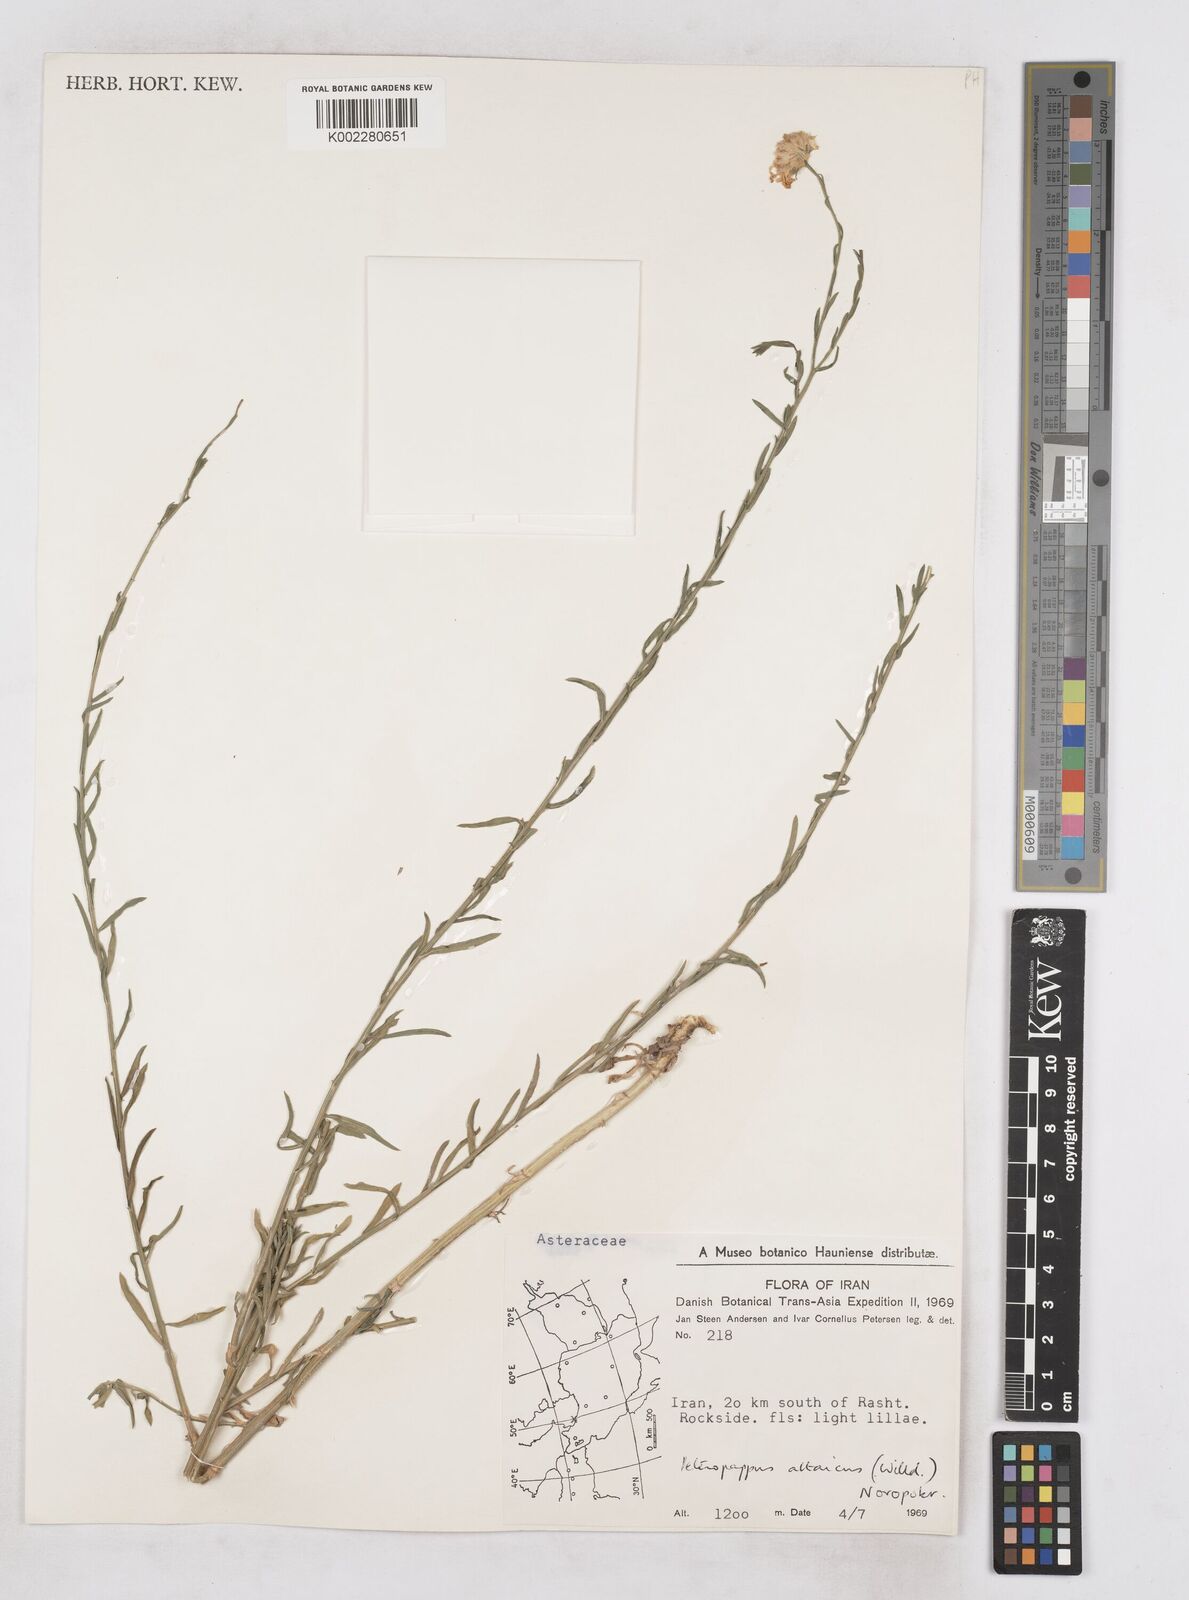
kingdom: Plantae
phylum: Tracheophyta
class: Magnoliopsida
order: Asterales
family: Asteraceae
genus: Heteropappus
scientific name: Heteropappus altaicus
